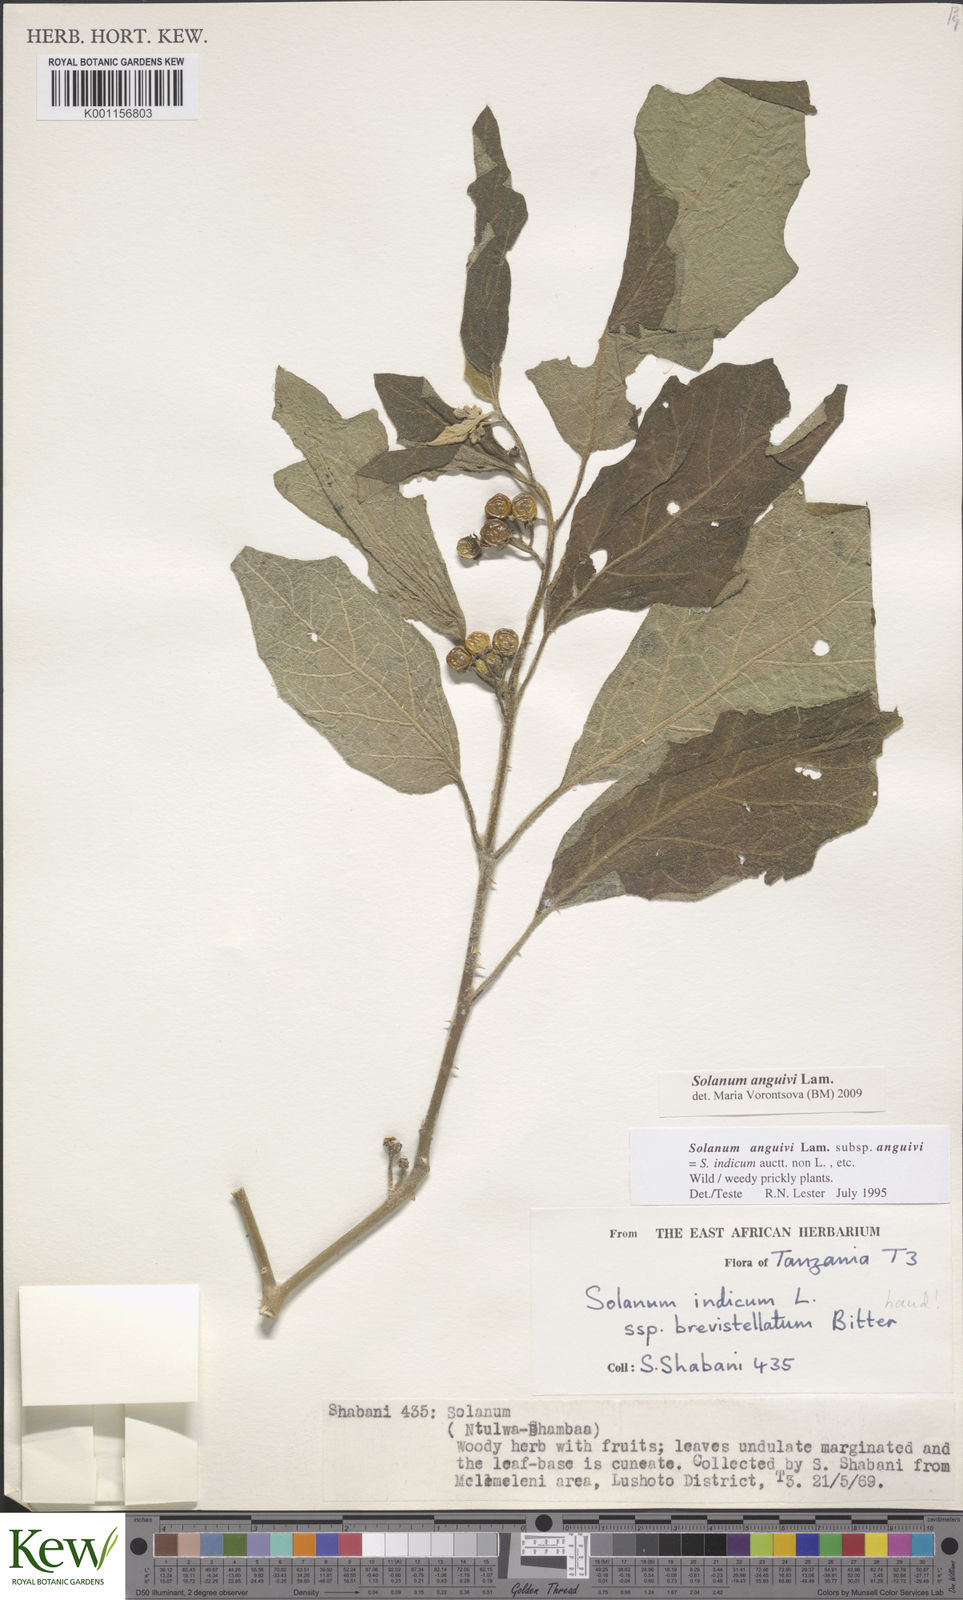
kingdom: Plantae
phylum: Tracheophyta
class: Magnoliopsida
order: Solanales
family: Solanaceae
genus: Solanum
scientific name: Solanum anguivi
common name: Forest bitterberry
